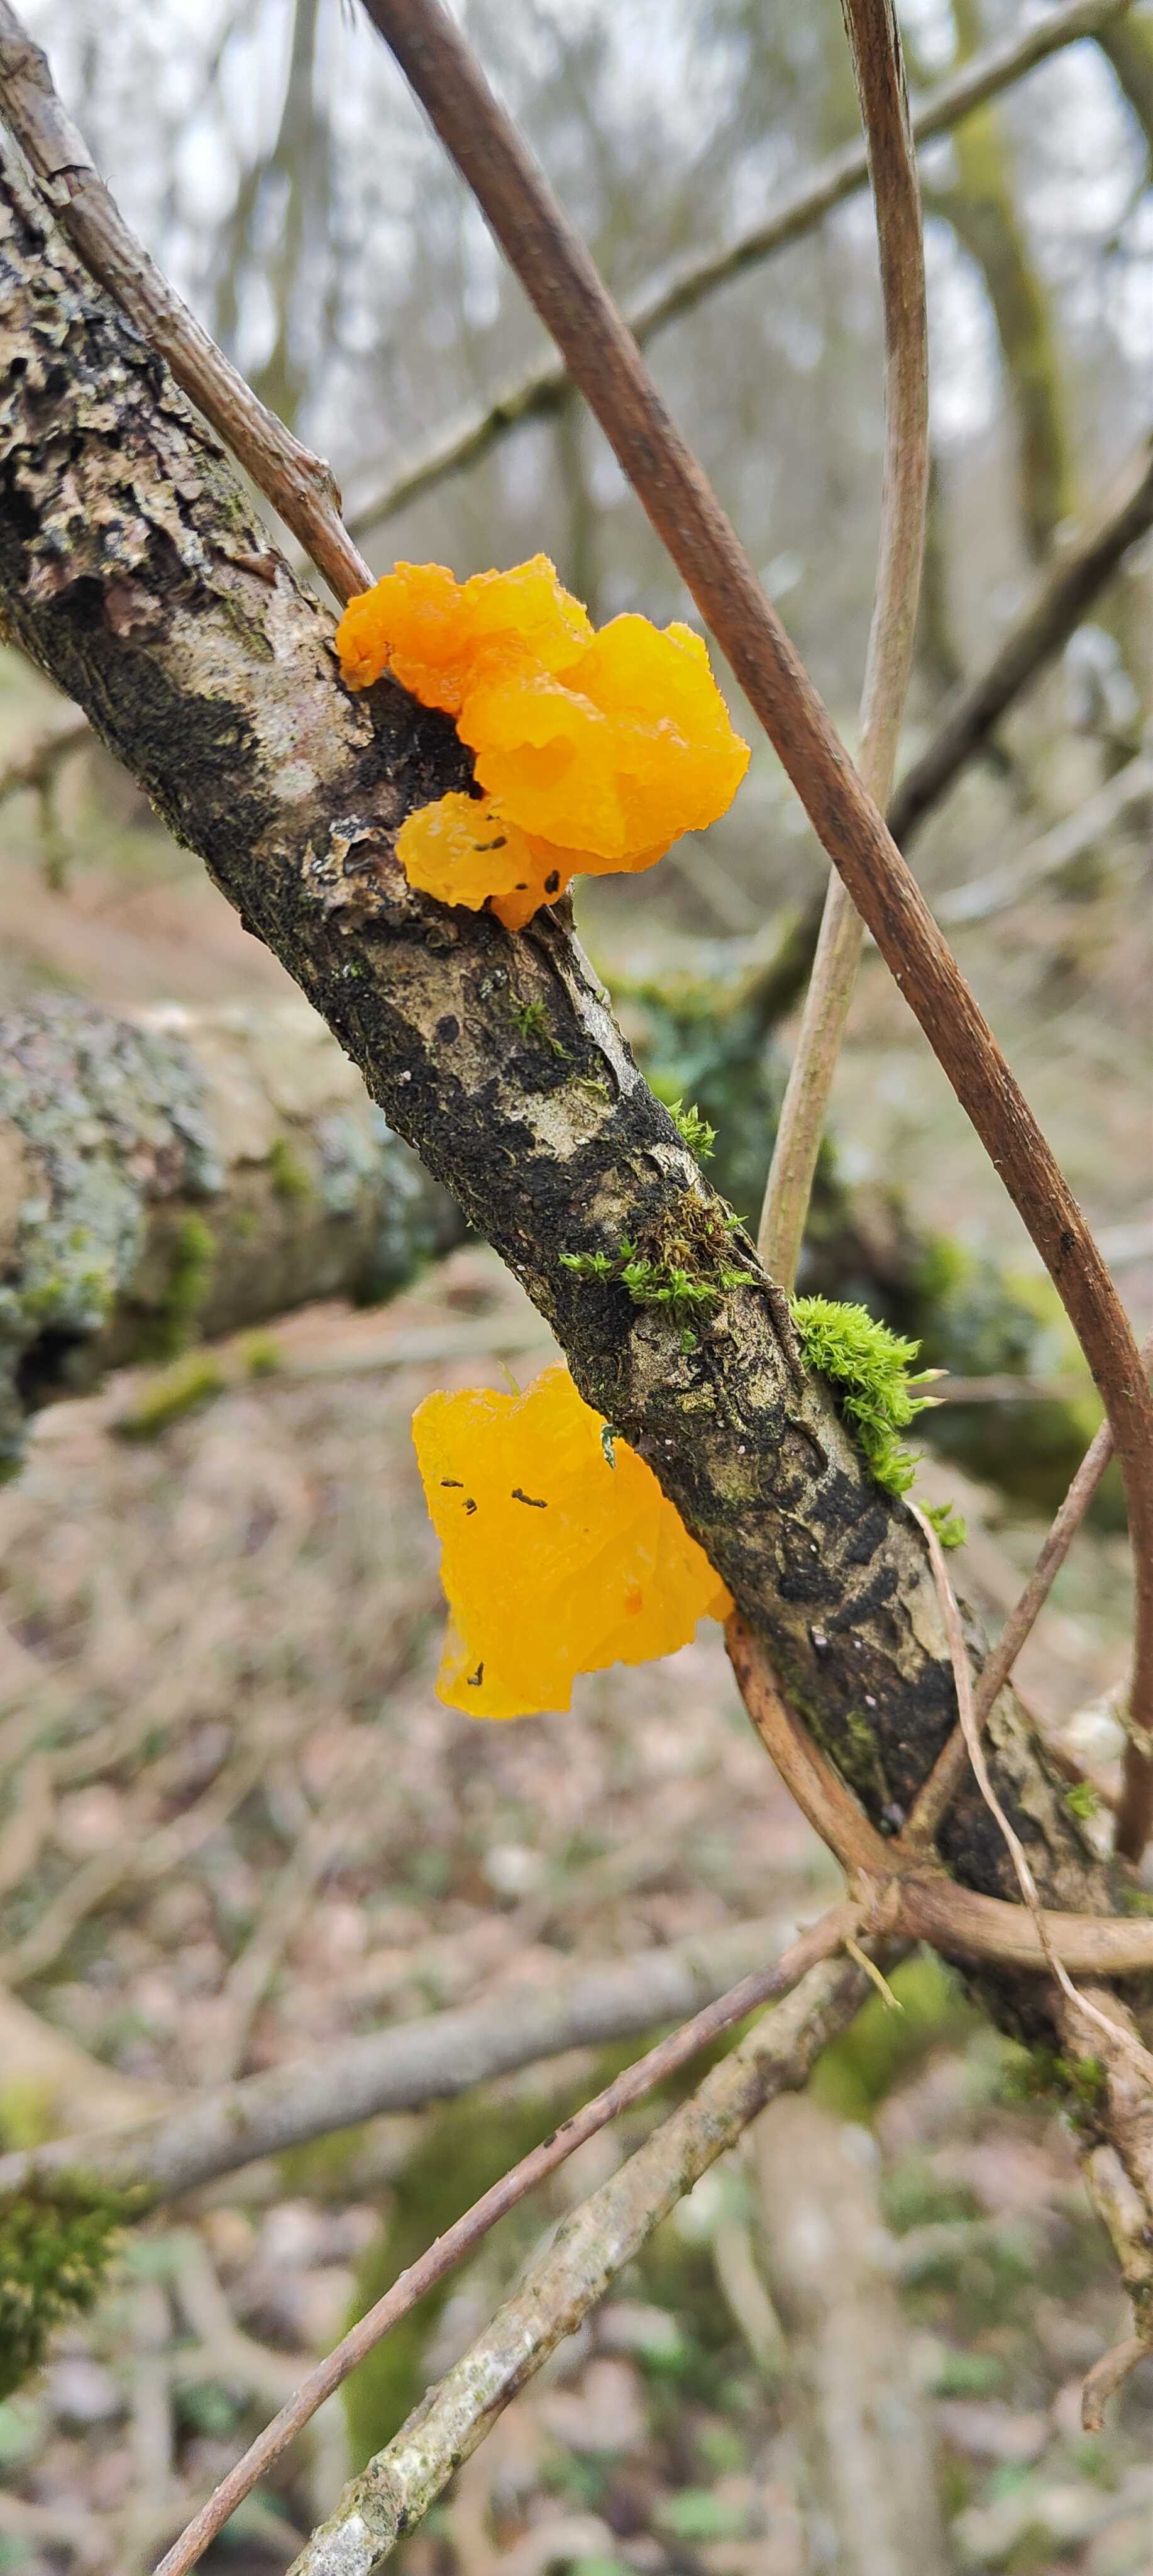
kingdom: Fungi
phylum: Basidiomycota
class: Tremellomycetes
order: Tremellales
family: Tremellaceae
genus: Tremella
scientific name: Tremella mesenterica
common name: gul bævresvamp
